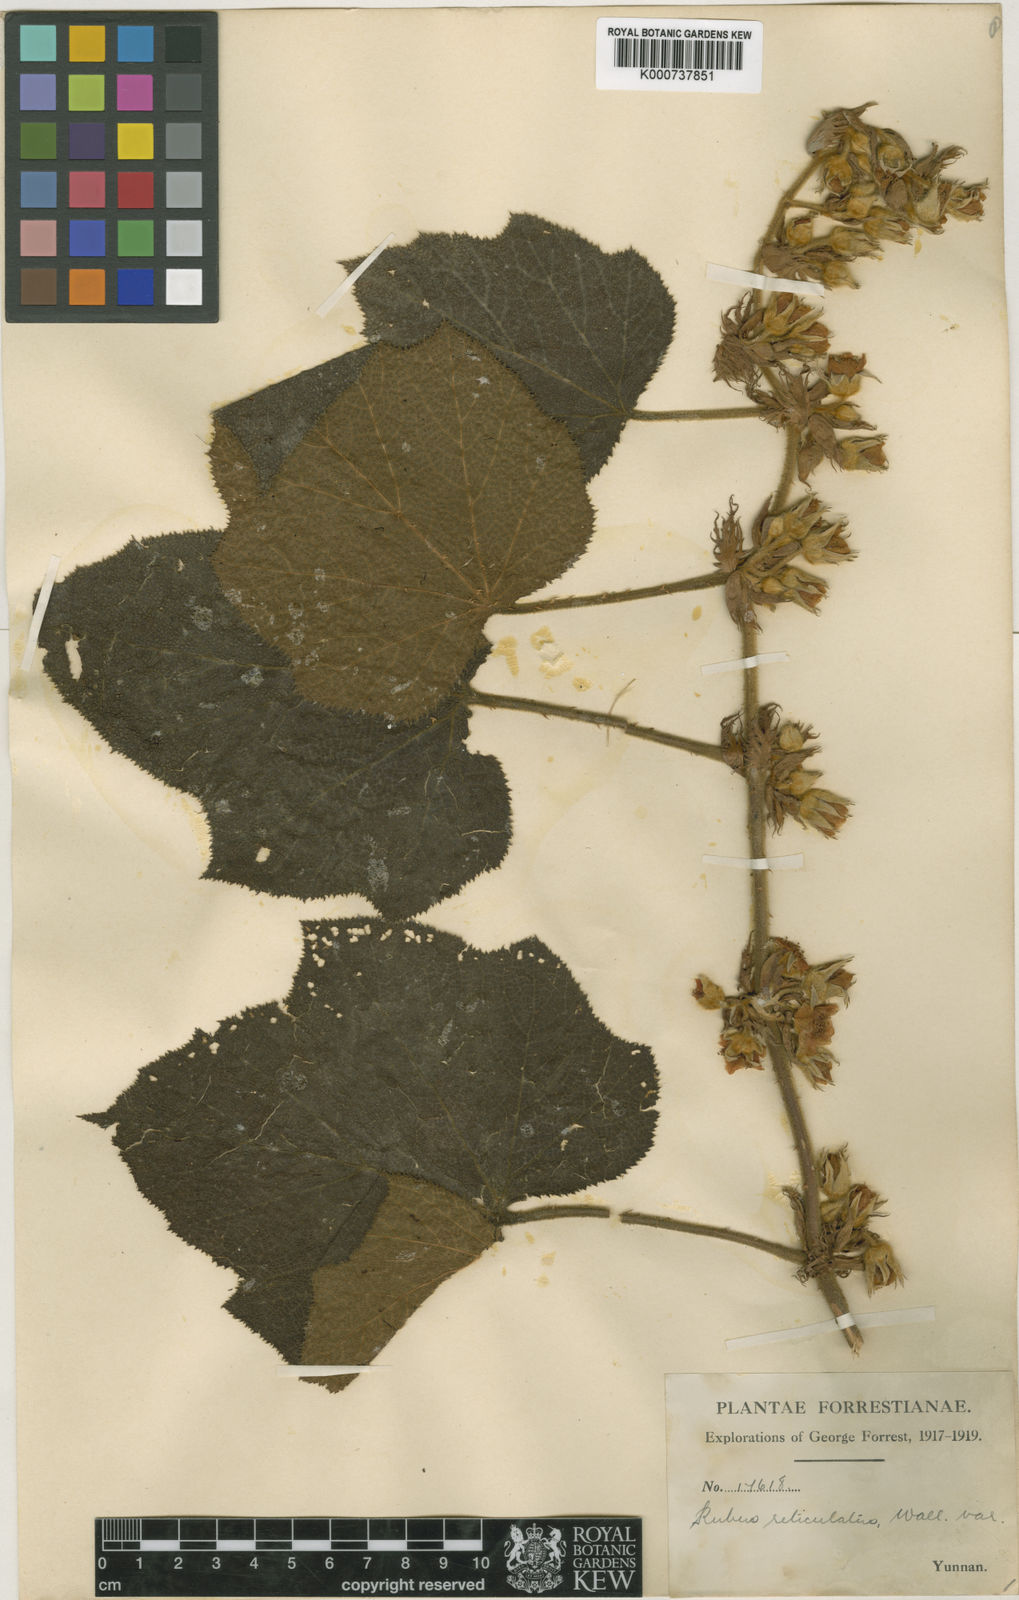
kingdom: Plantae
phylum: Tracheophyta
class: Magnoliopsida
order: Rosales
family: Rosaceae
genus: Rubus
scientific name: Rubus chrysobotrys
